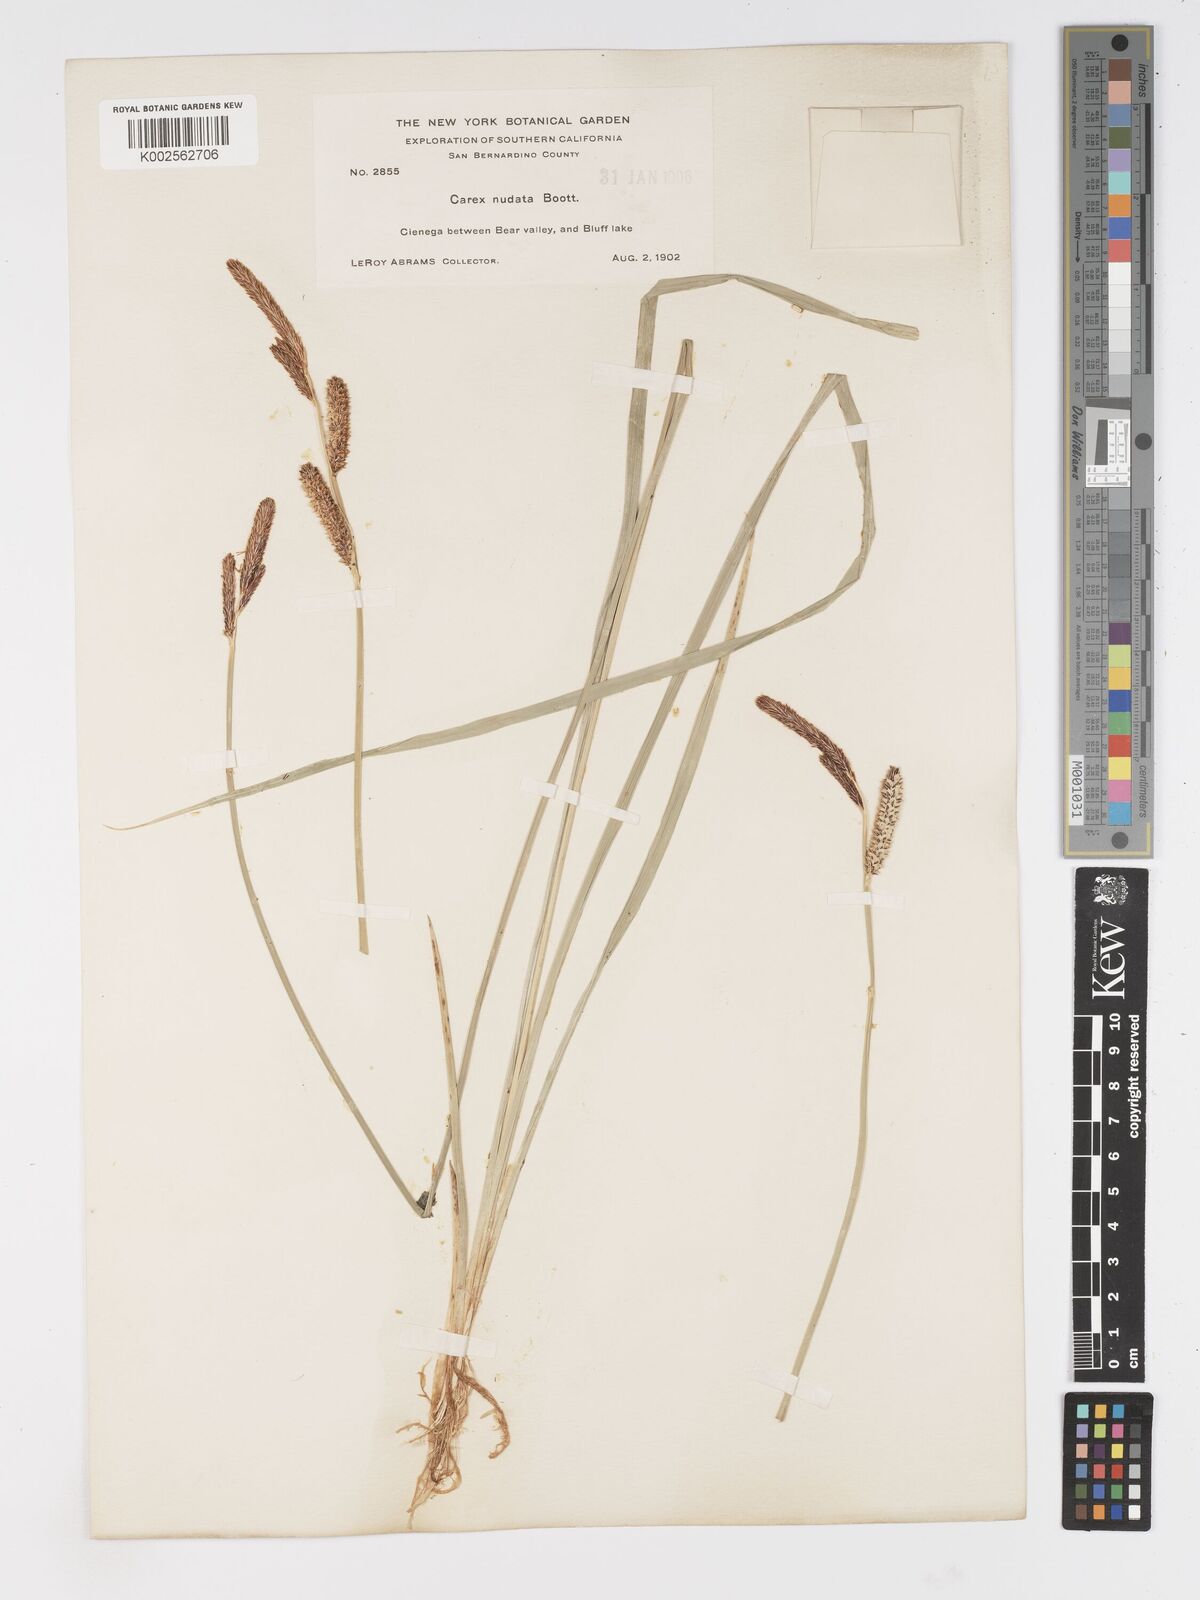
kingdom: Plantae
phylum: Tracheophyta
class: Liliopsida
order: Poales
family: Cyperaceae
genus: Carex
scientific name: Carex nudata
